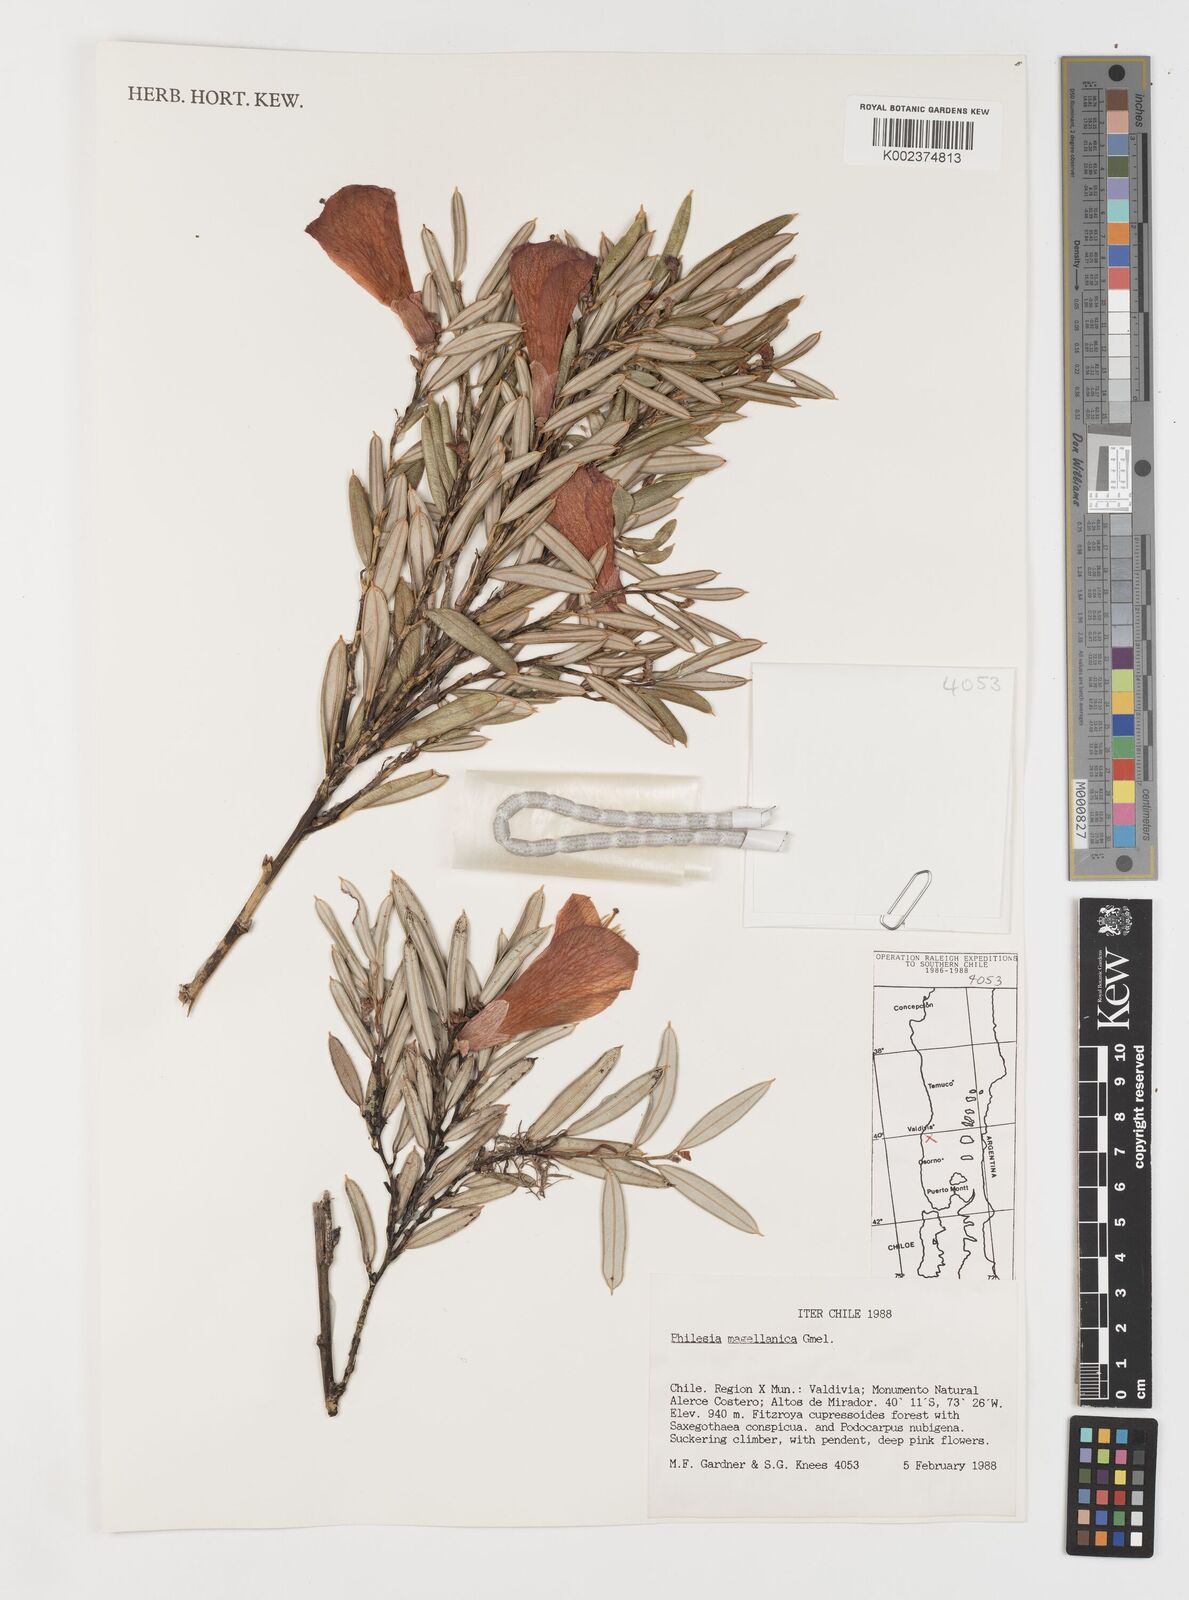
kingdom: Plantae
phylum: Tracheophyta
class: Liliopsida
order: Liliales
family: Philesiaceae
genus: Philesia
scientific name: Philesia magellanica
